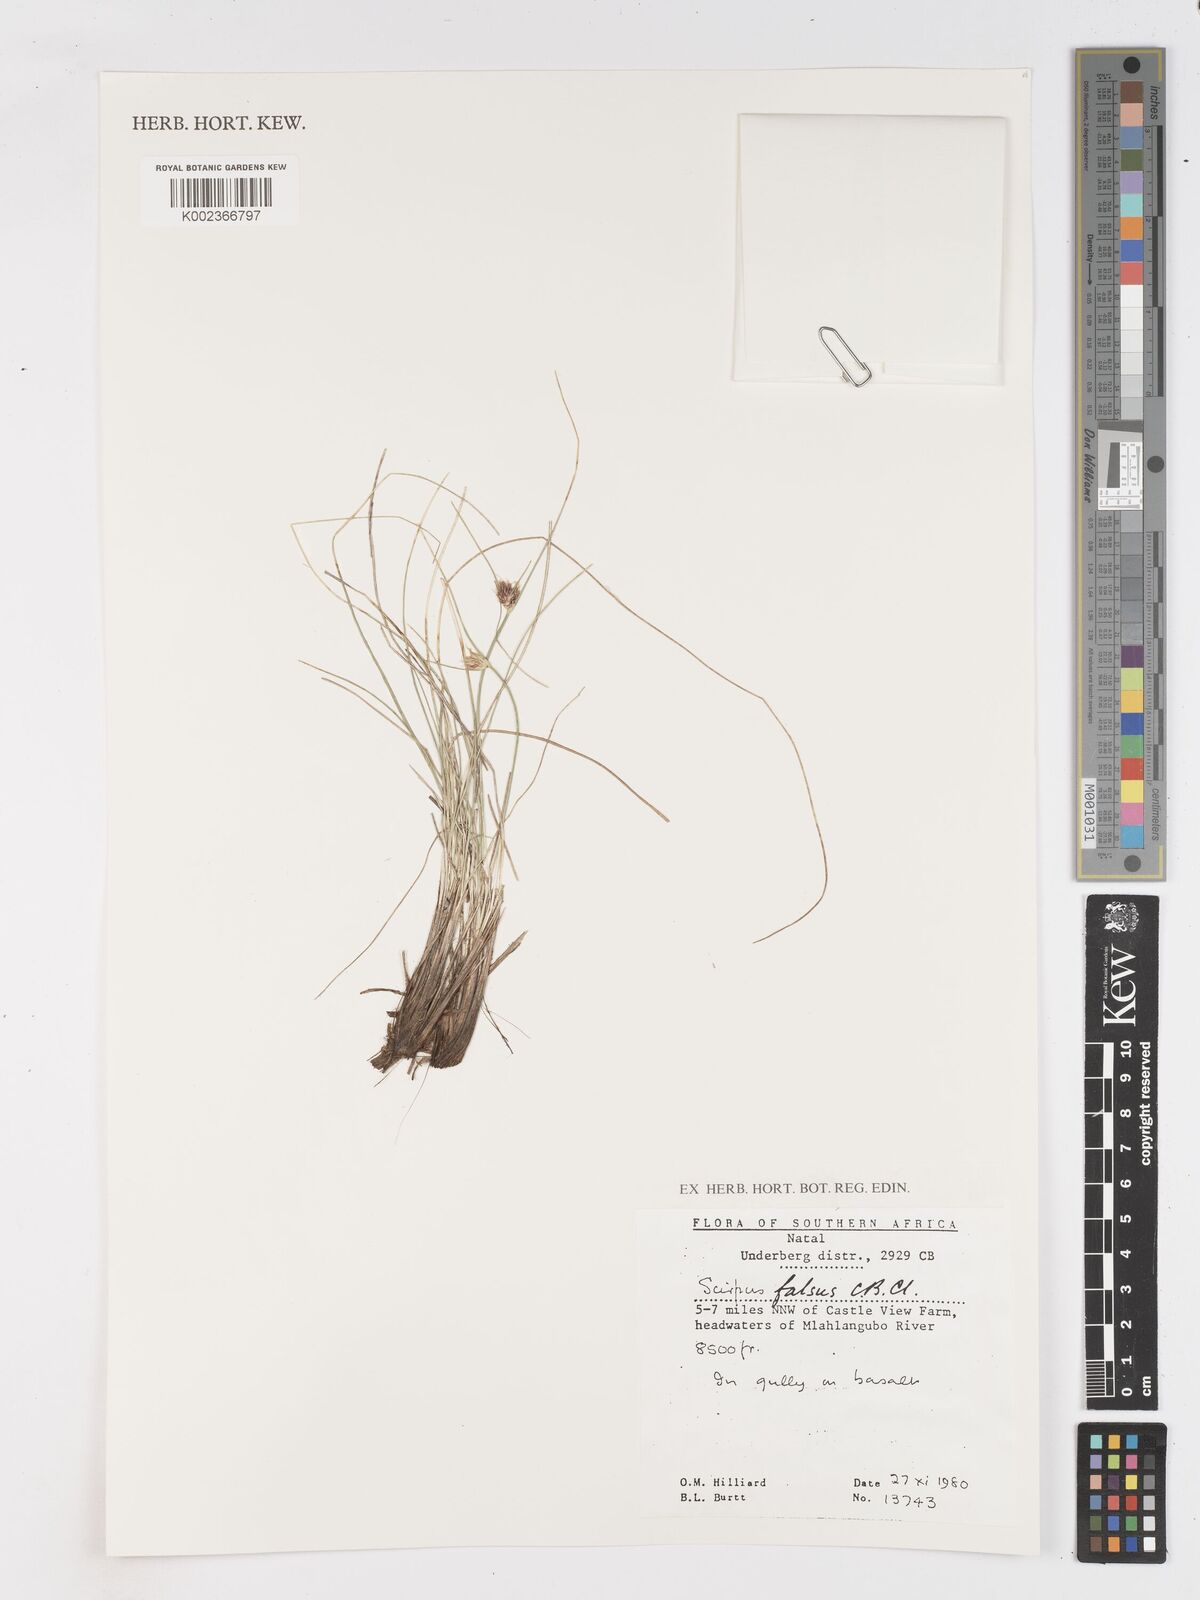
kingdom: Plantae
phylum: Tracheophyta
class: Liliopsida
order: Poales
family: Cyperaceae
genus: Dracoscirpoides
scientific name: Dracoscirpoides falsa
